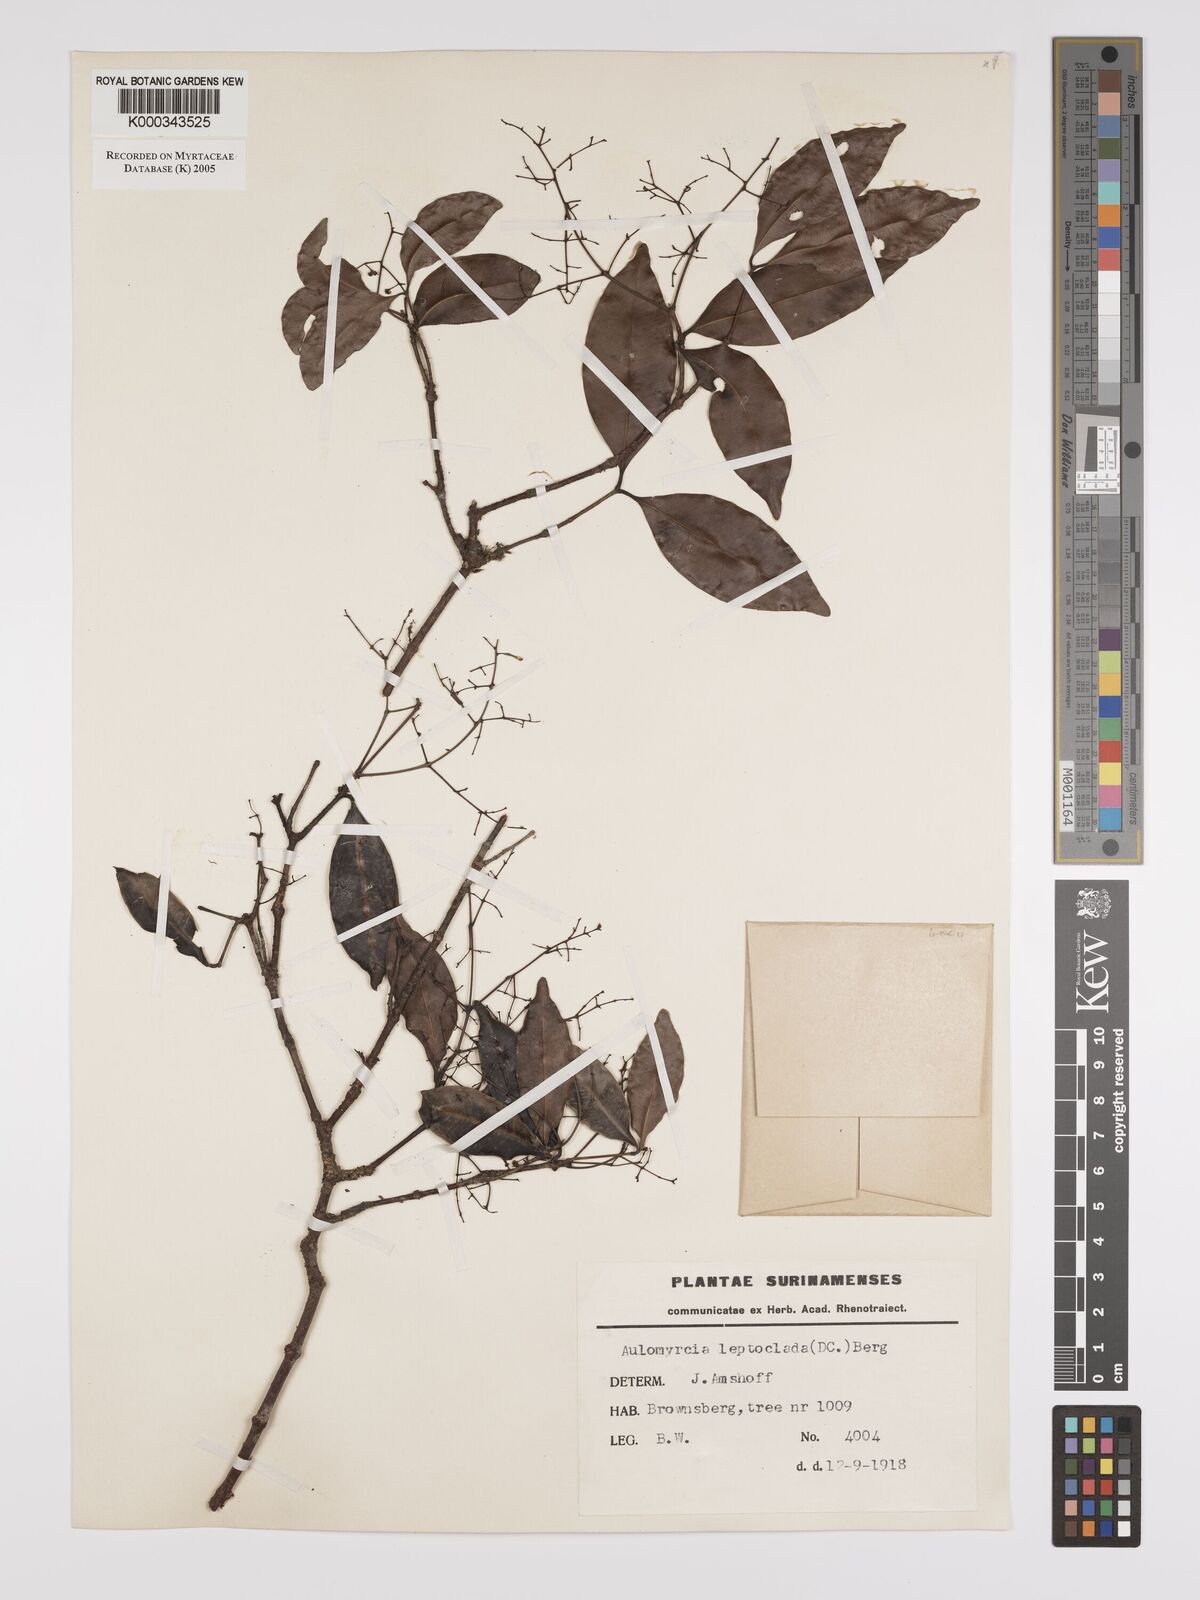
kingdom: Plantae
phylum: Tracheophyta
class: Magnoliopsida
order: Myrtales
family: Myrtaceae
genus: Myrcia
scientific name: Myrcia amazonica
